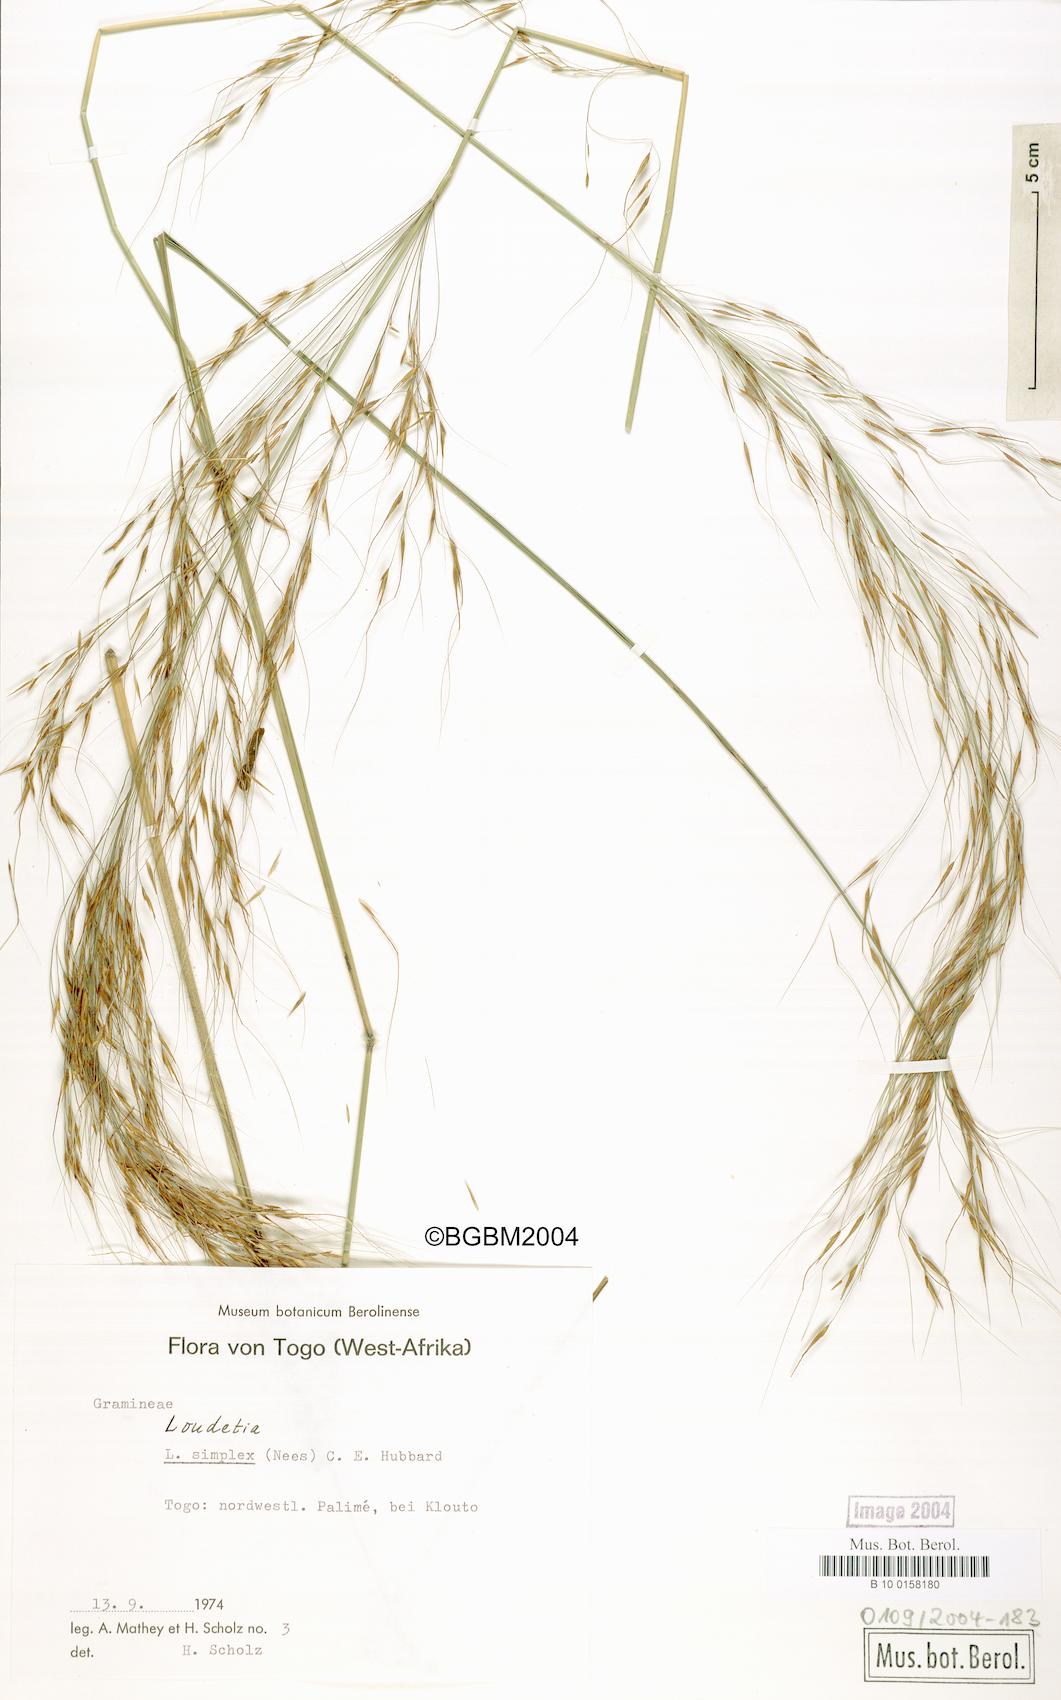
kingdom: Plantae
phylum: Tracheophyta
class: Liliopsida
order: Poales
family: Poaceae
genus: Loudetia
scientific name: Loudetia simplex
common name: Common russet grass
